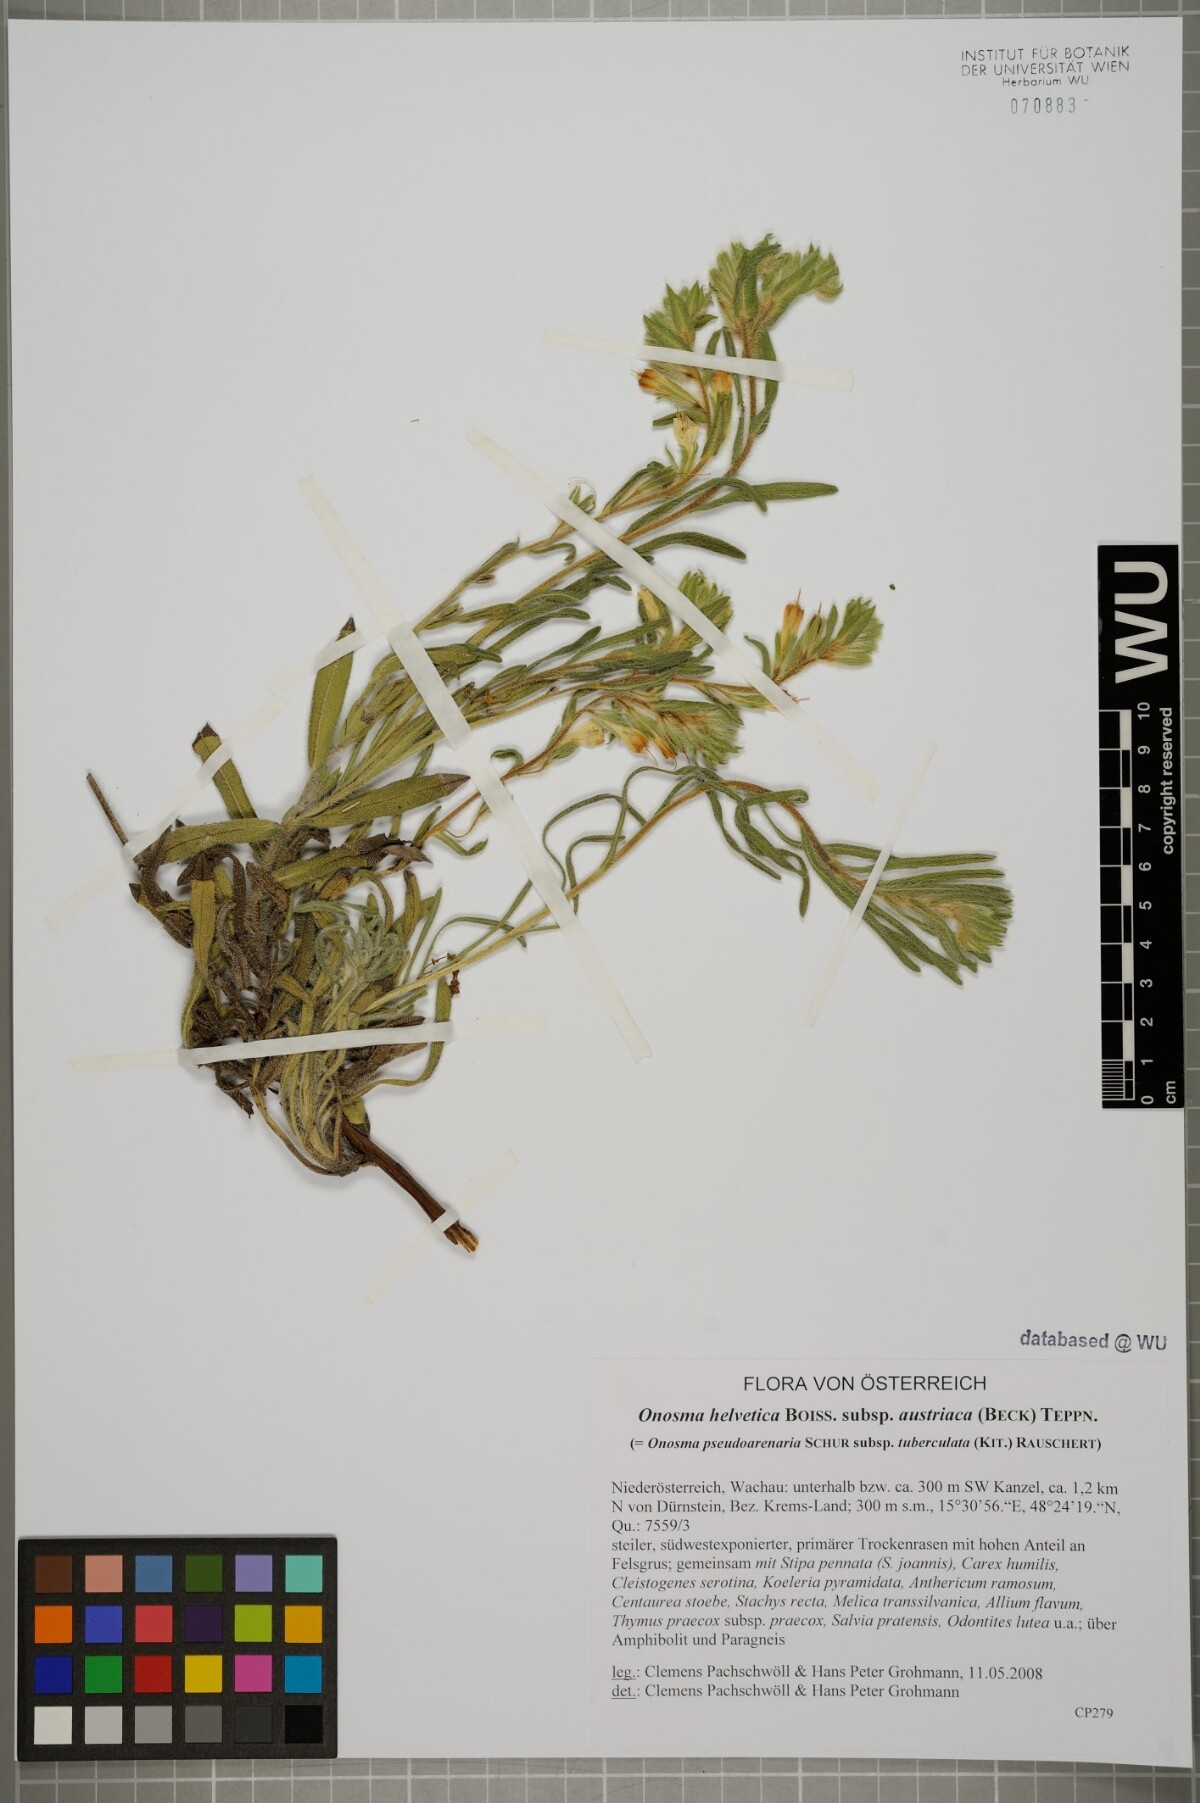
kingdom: Plantae
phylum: Tracheophyta
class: Magnoliopsida
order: Boraginales
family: Boraginaceae
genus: Onosma
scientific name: Onosma arenaria
